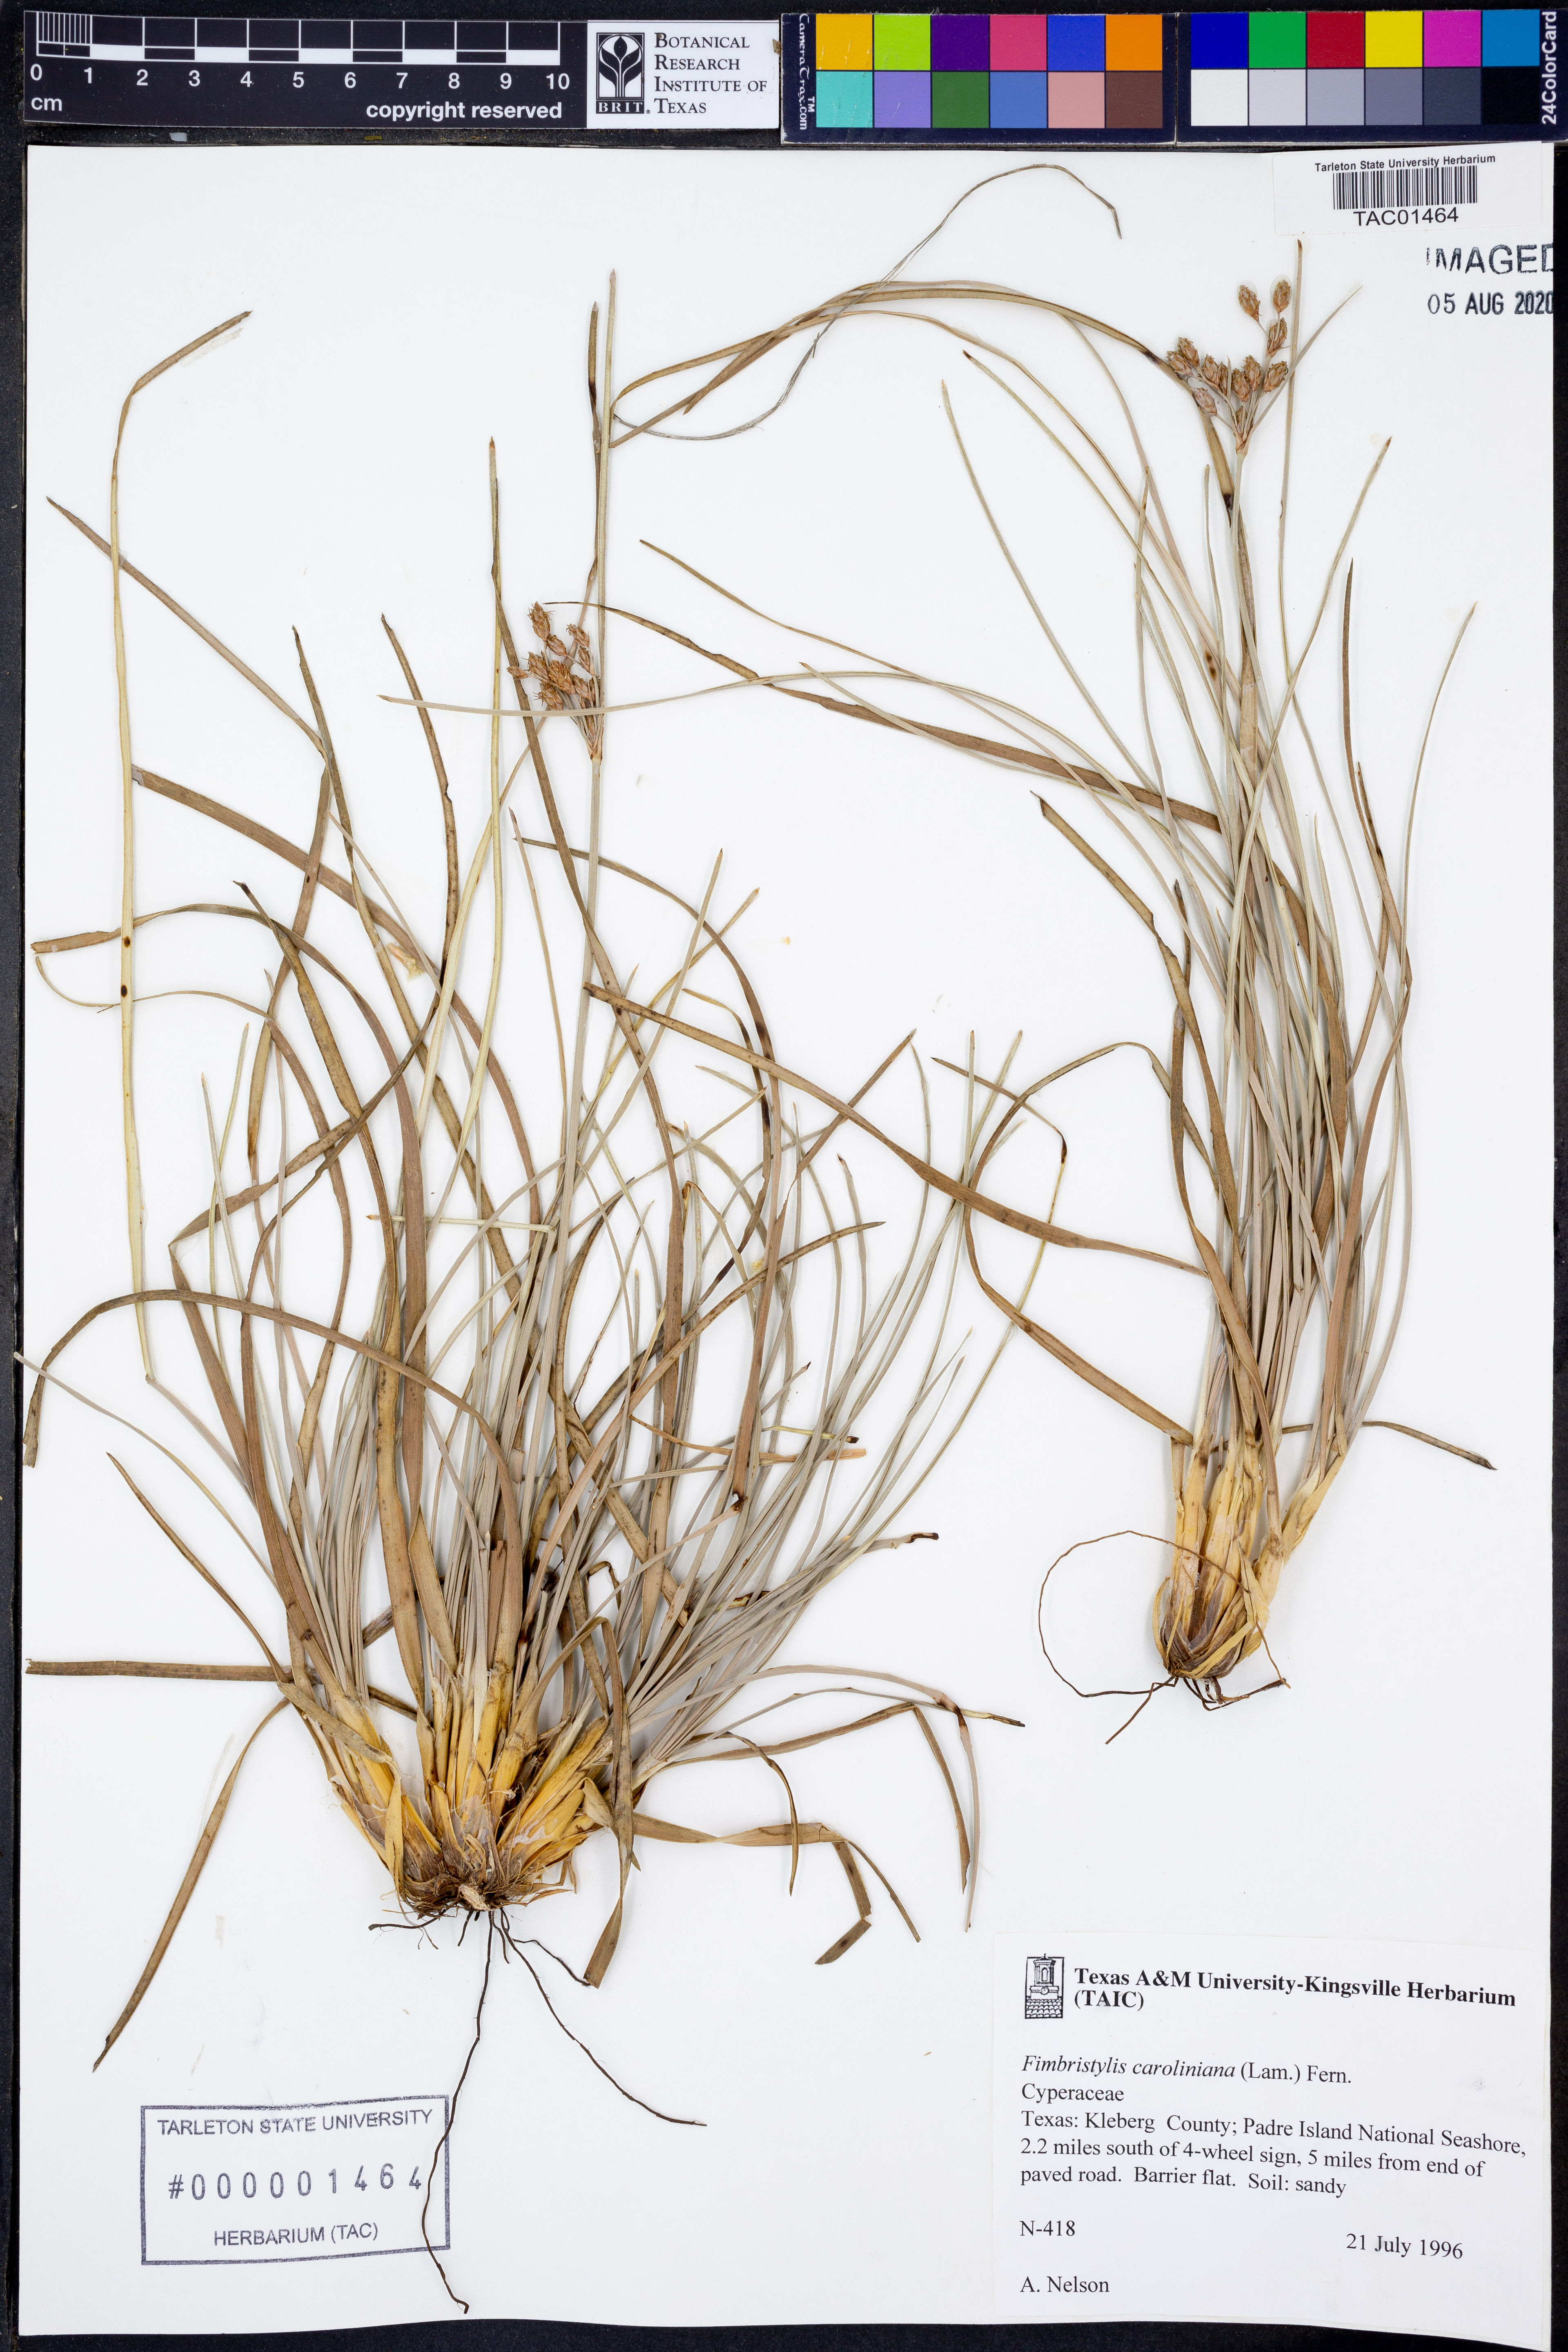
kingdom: Plantae
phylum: Tracheophyta
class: Liliopsida
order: Poales
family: Cyperaceae
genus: Fimbristylis
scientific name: Fimbristylis caroliniana
